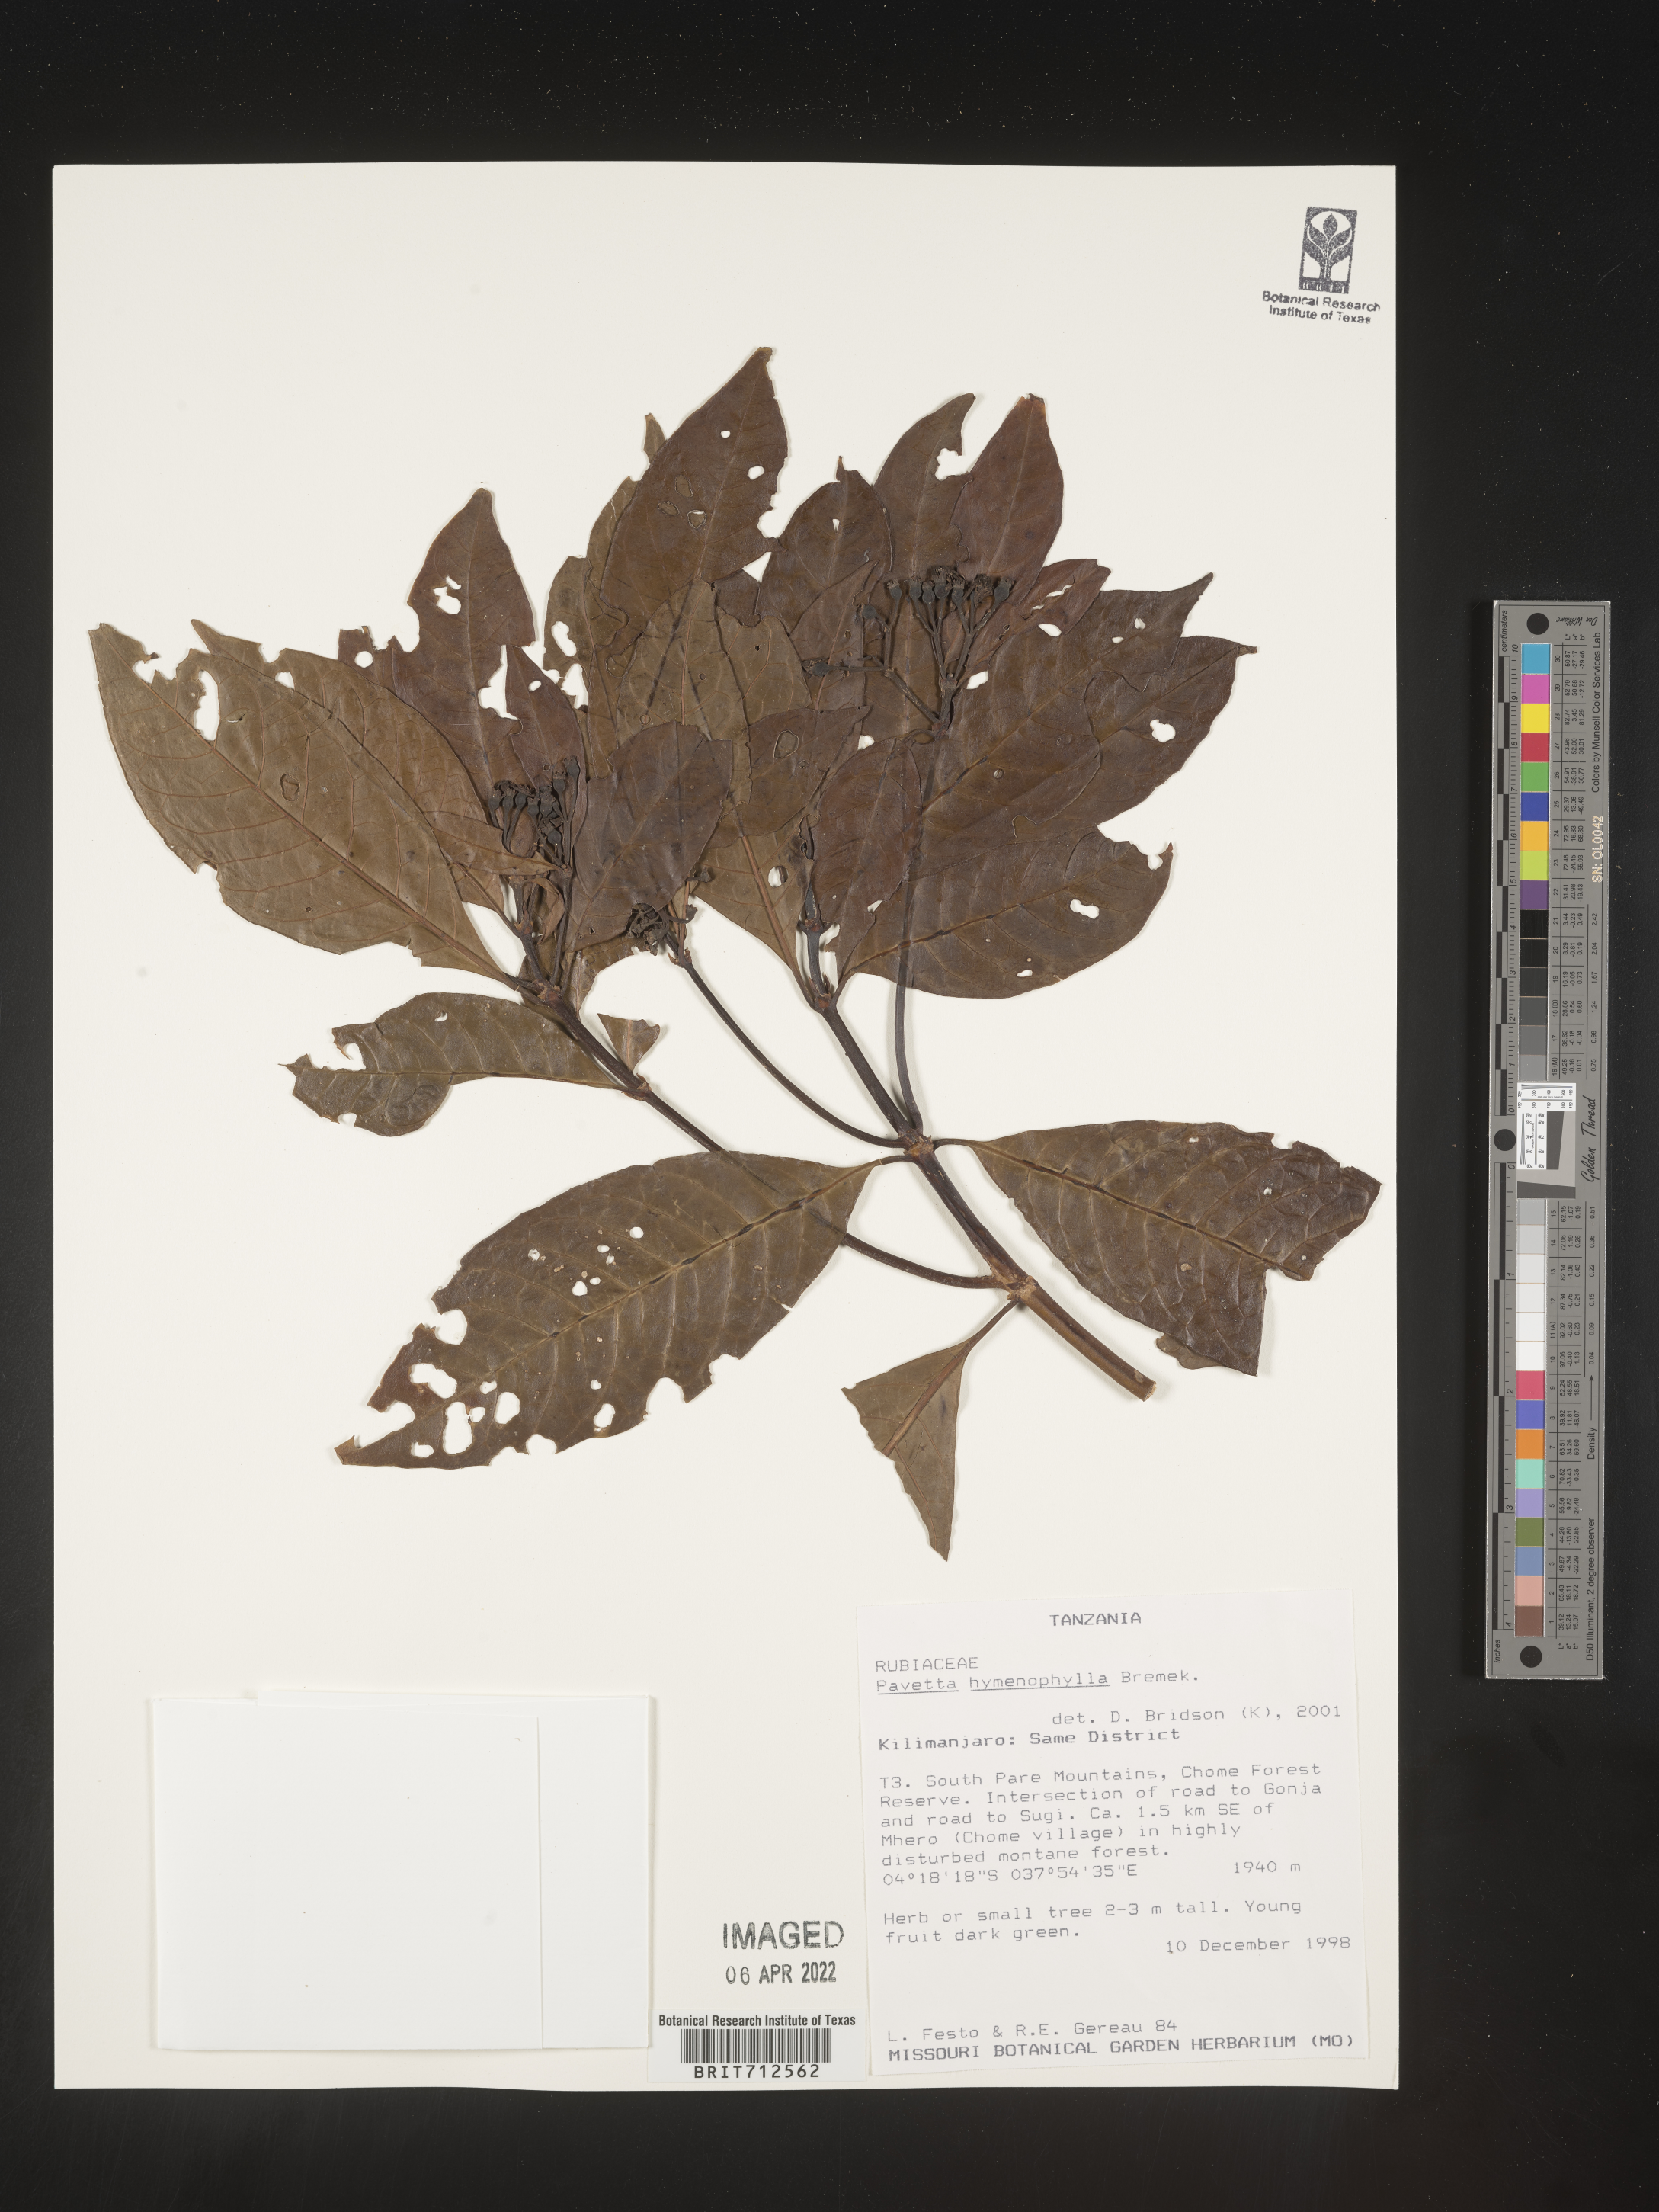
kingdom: Plantae
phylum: Tracheophyta
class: Magnoliopsida
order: Gentianales
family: Rubiaceae
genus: Pavetta
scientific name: Pavetta
